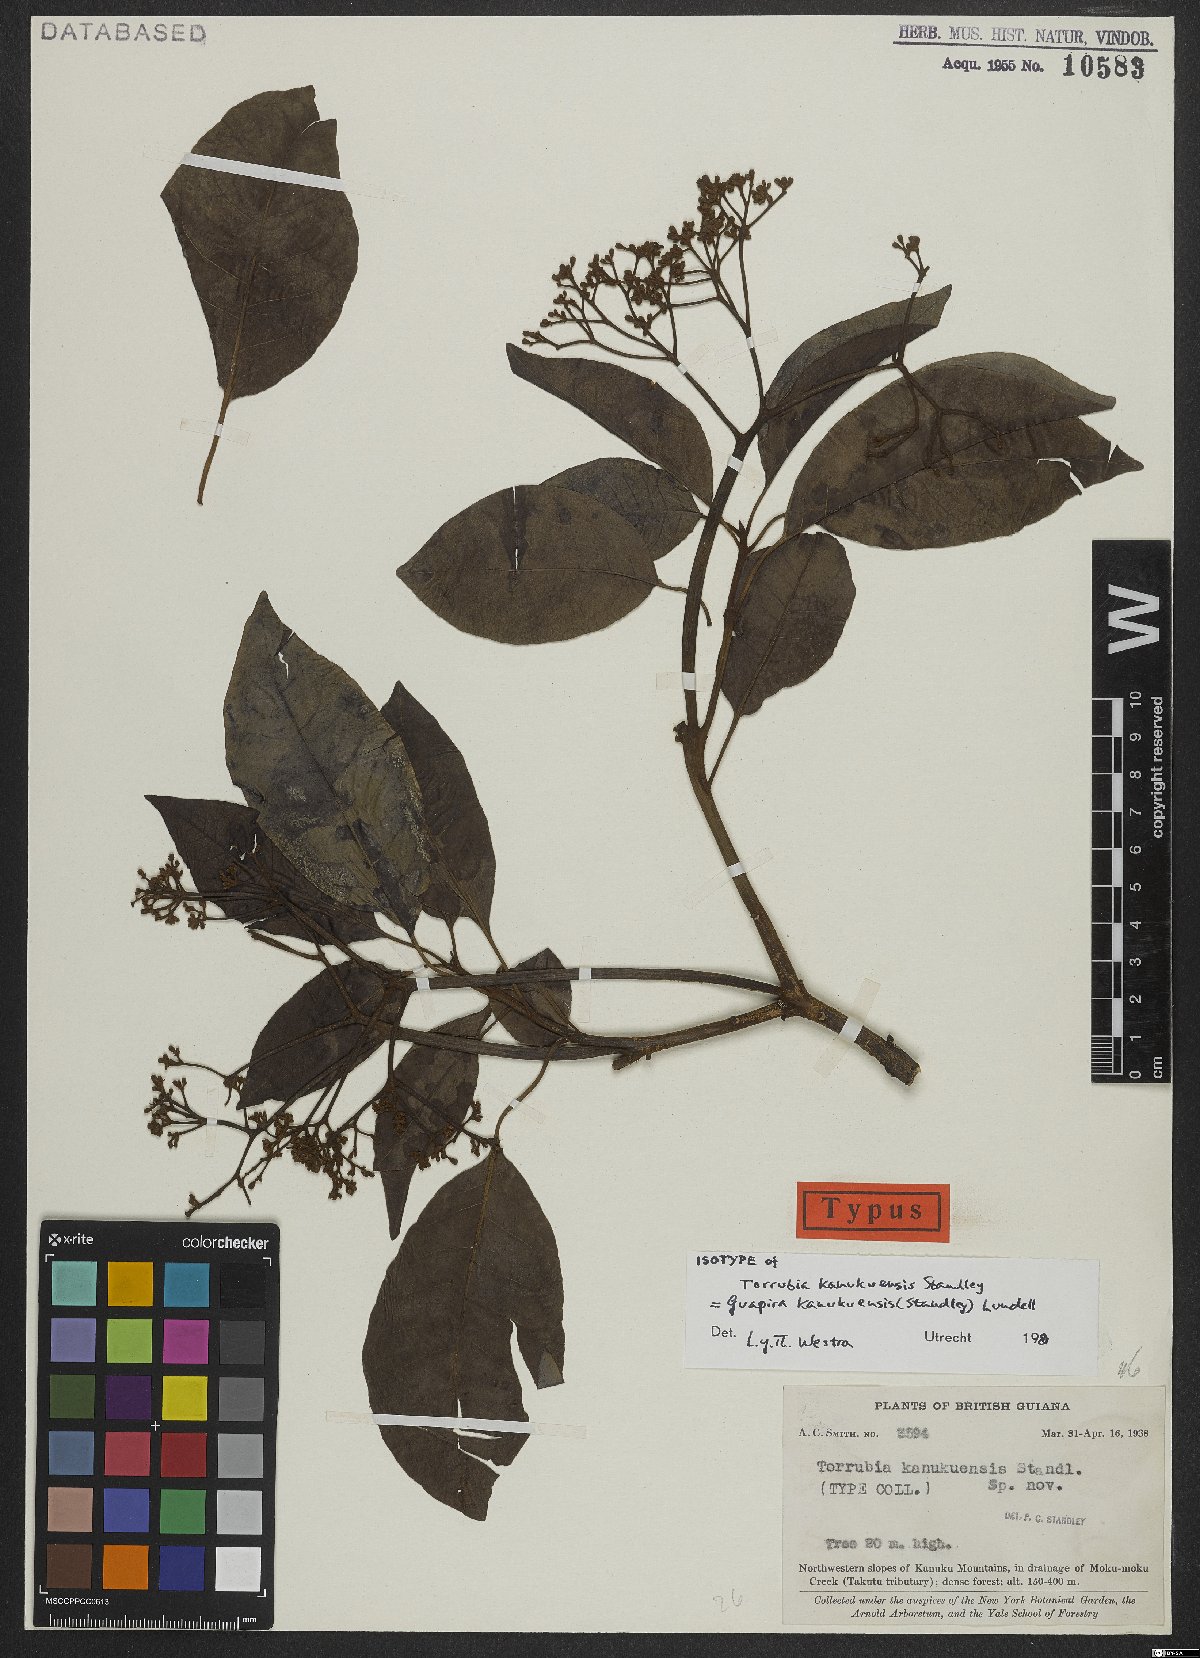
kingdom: Plantae
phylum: Tracheophyta
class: Magnoliopsida
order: Caryophyllales
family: Nyctaginaceae
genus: Guapira
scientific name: Guapira kanukuensis
